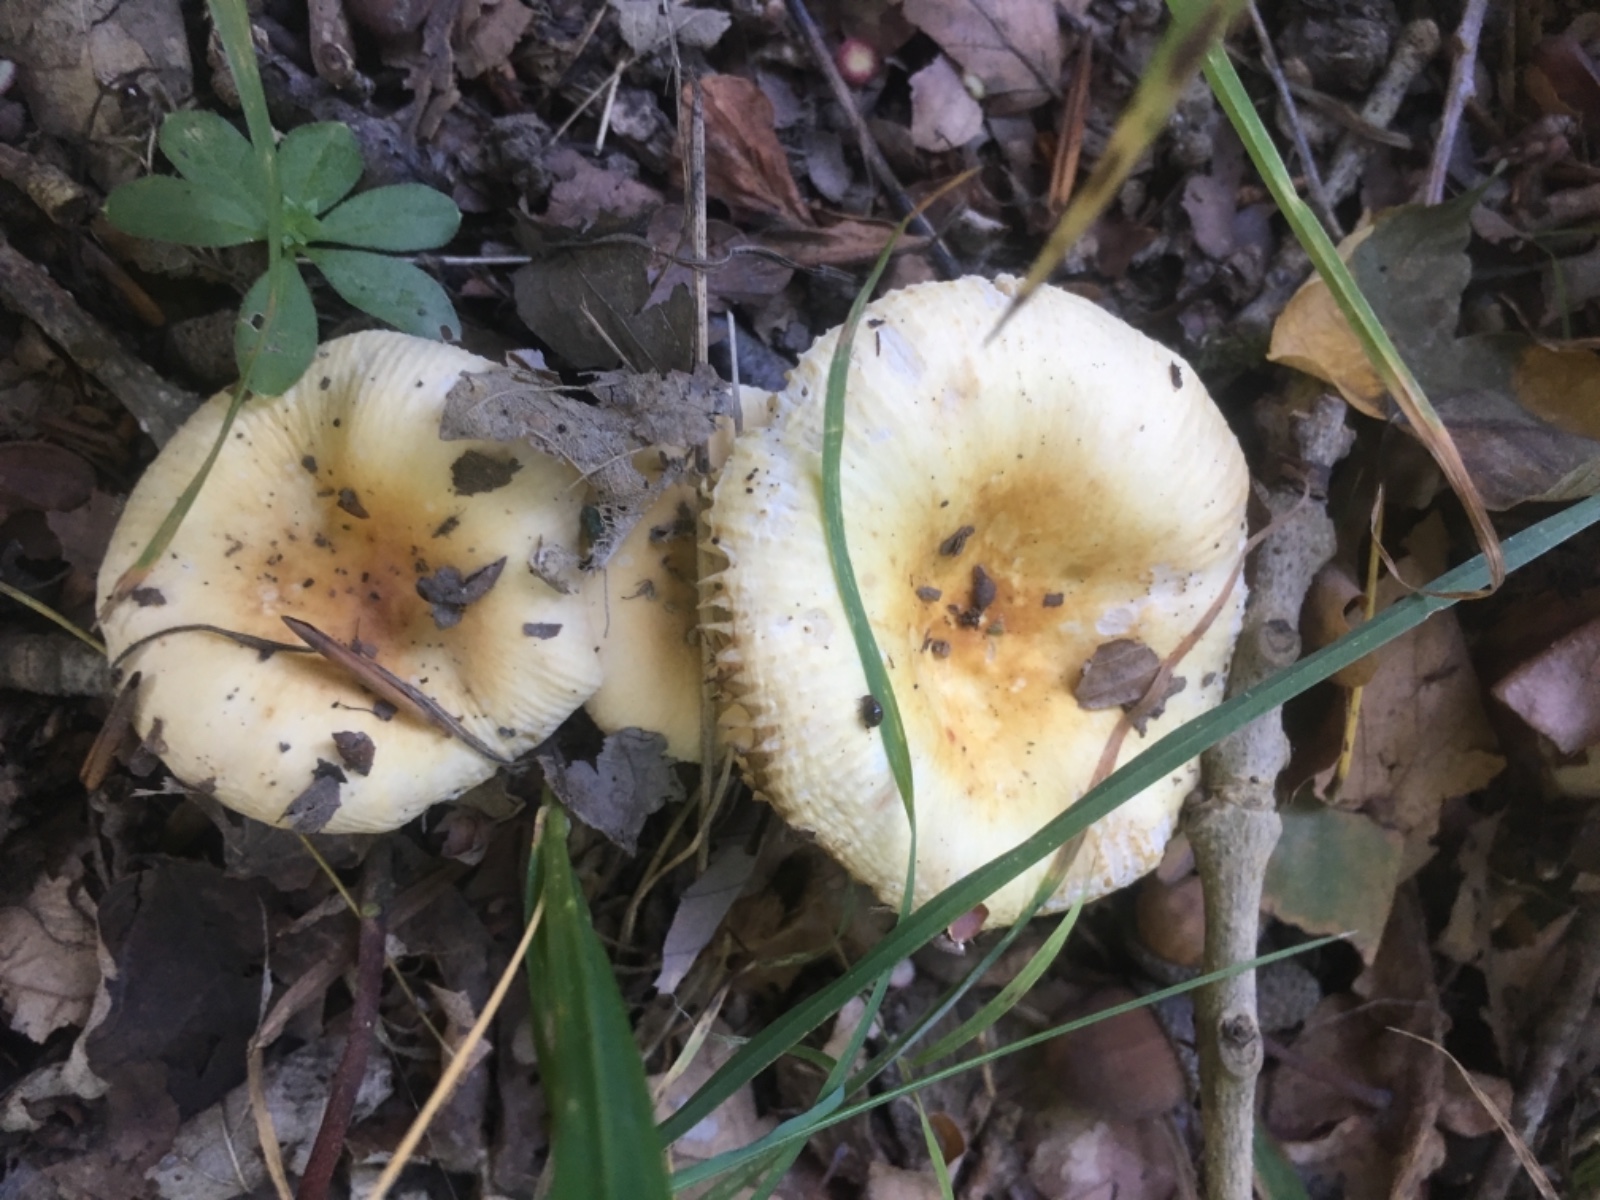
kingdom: Fungi
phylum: Basidiomycota
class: Agaricomycetes
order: Russulales
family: Russulaceae
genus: Russula
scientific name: Russula solaris
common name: sol-skørhat
